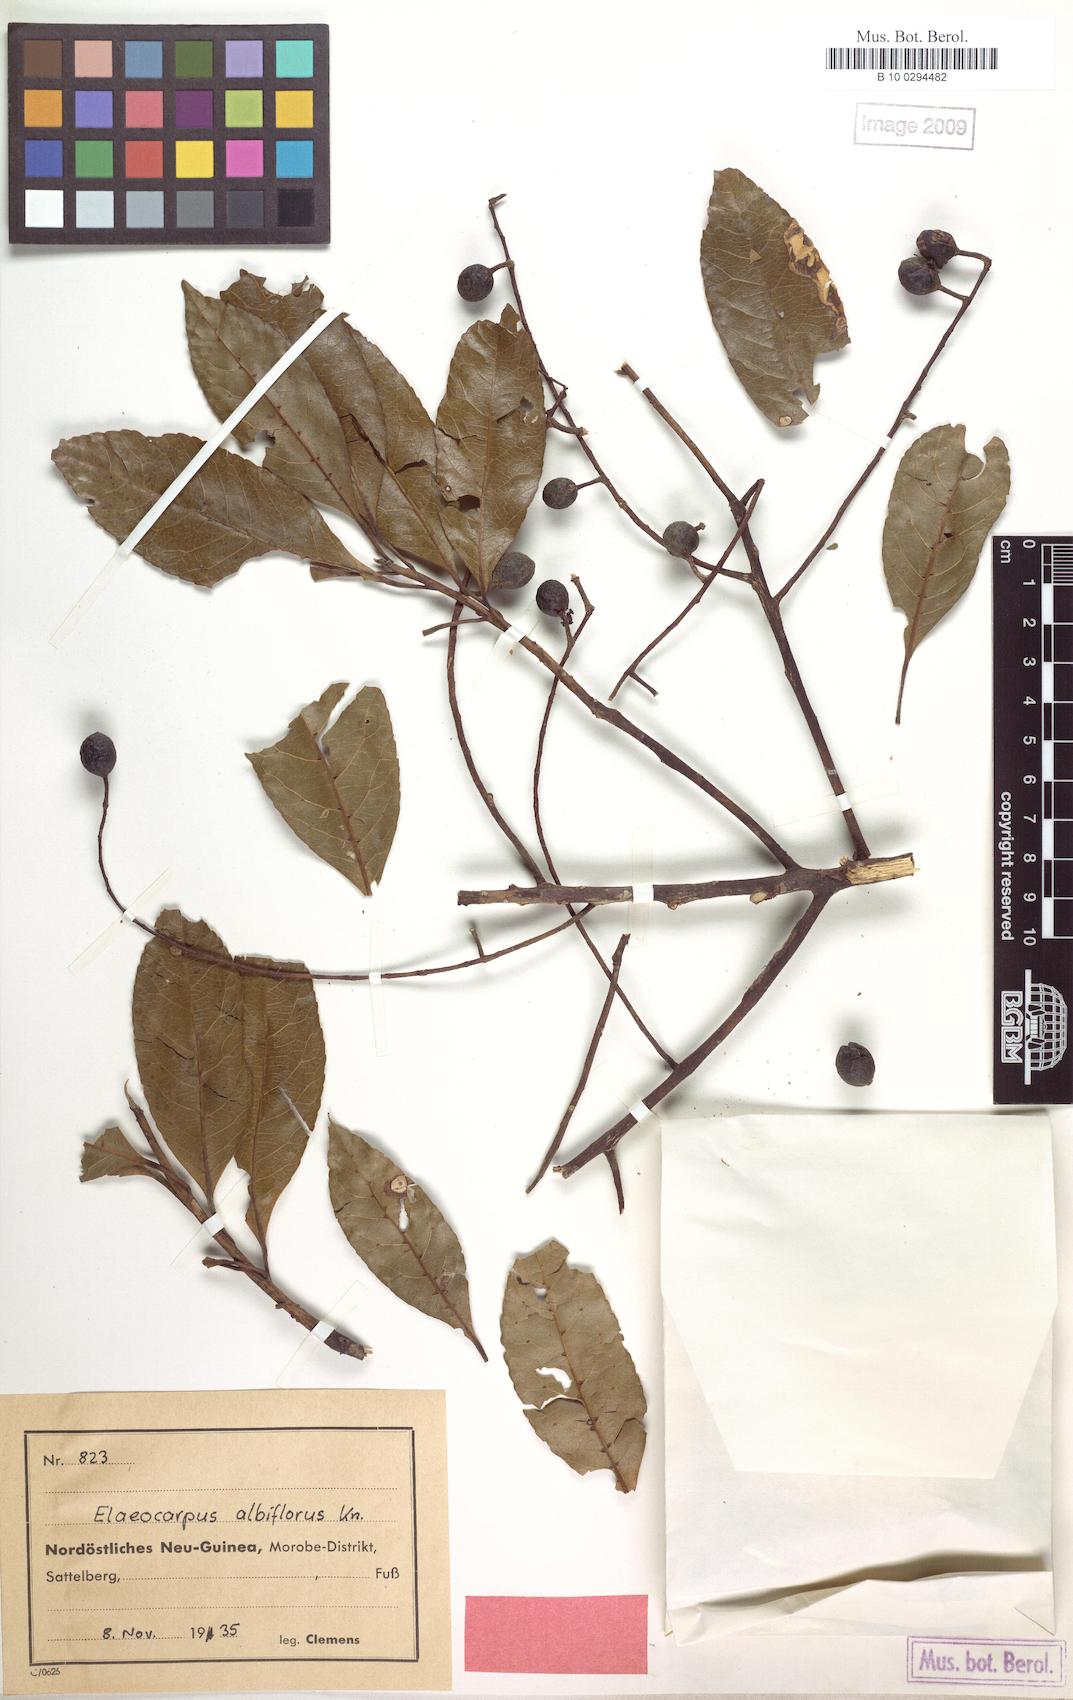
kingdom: Plantae
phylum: Tracheophyta
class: Magnoliopsida
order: Oxalidales
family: Elaeocarpaceae
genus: Elaeocarpus
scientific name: Elaeocarpus polydactylus
